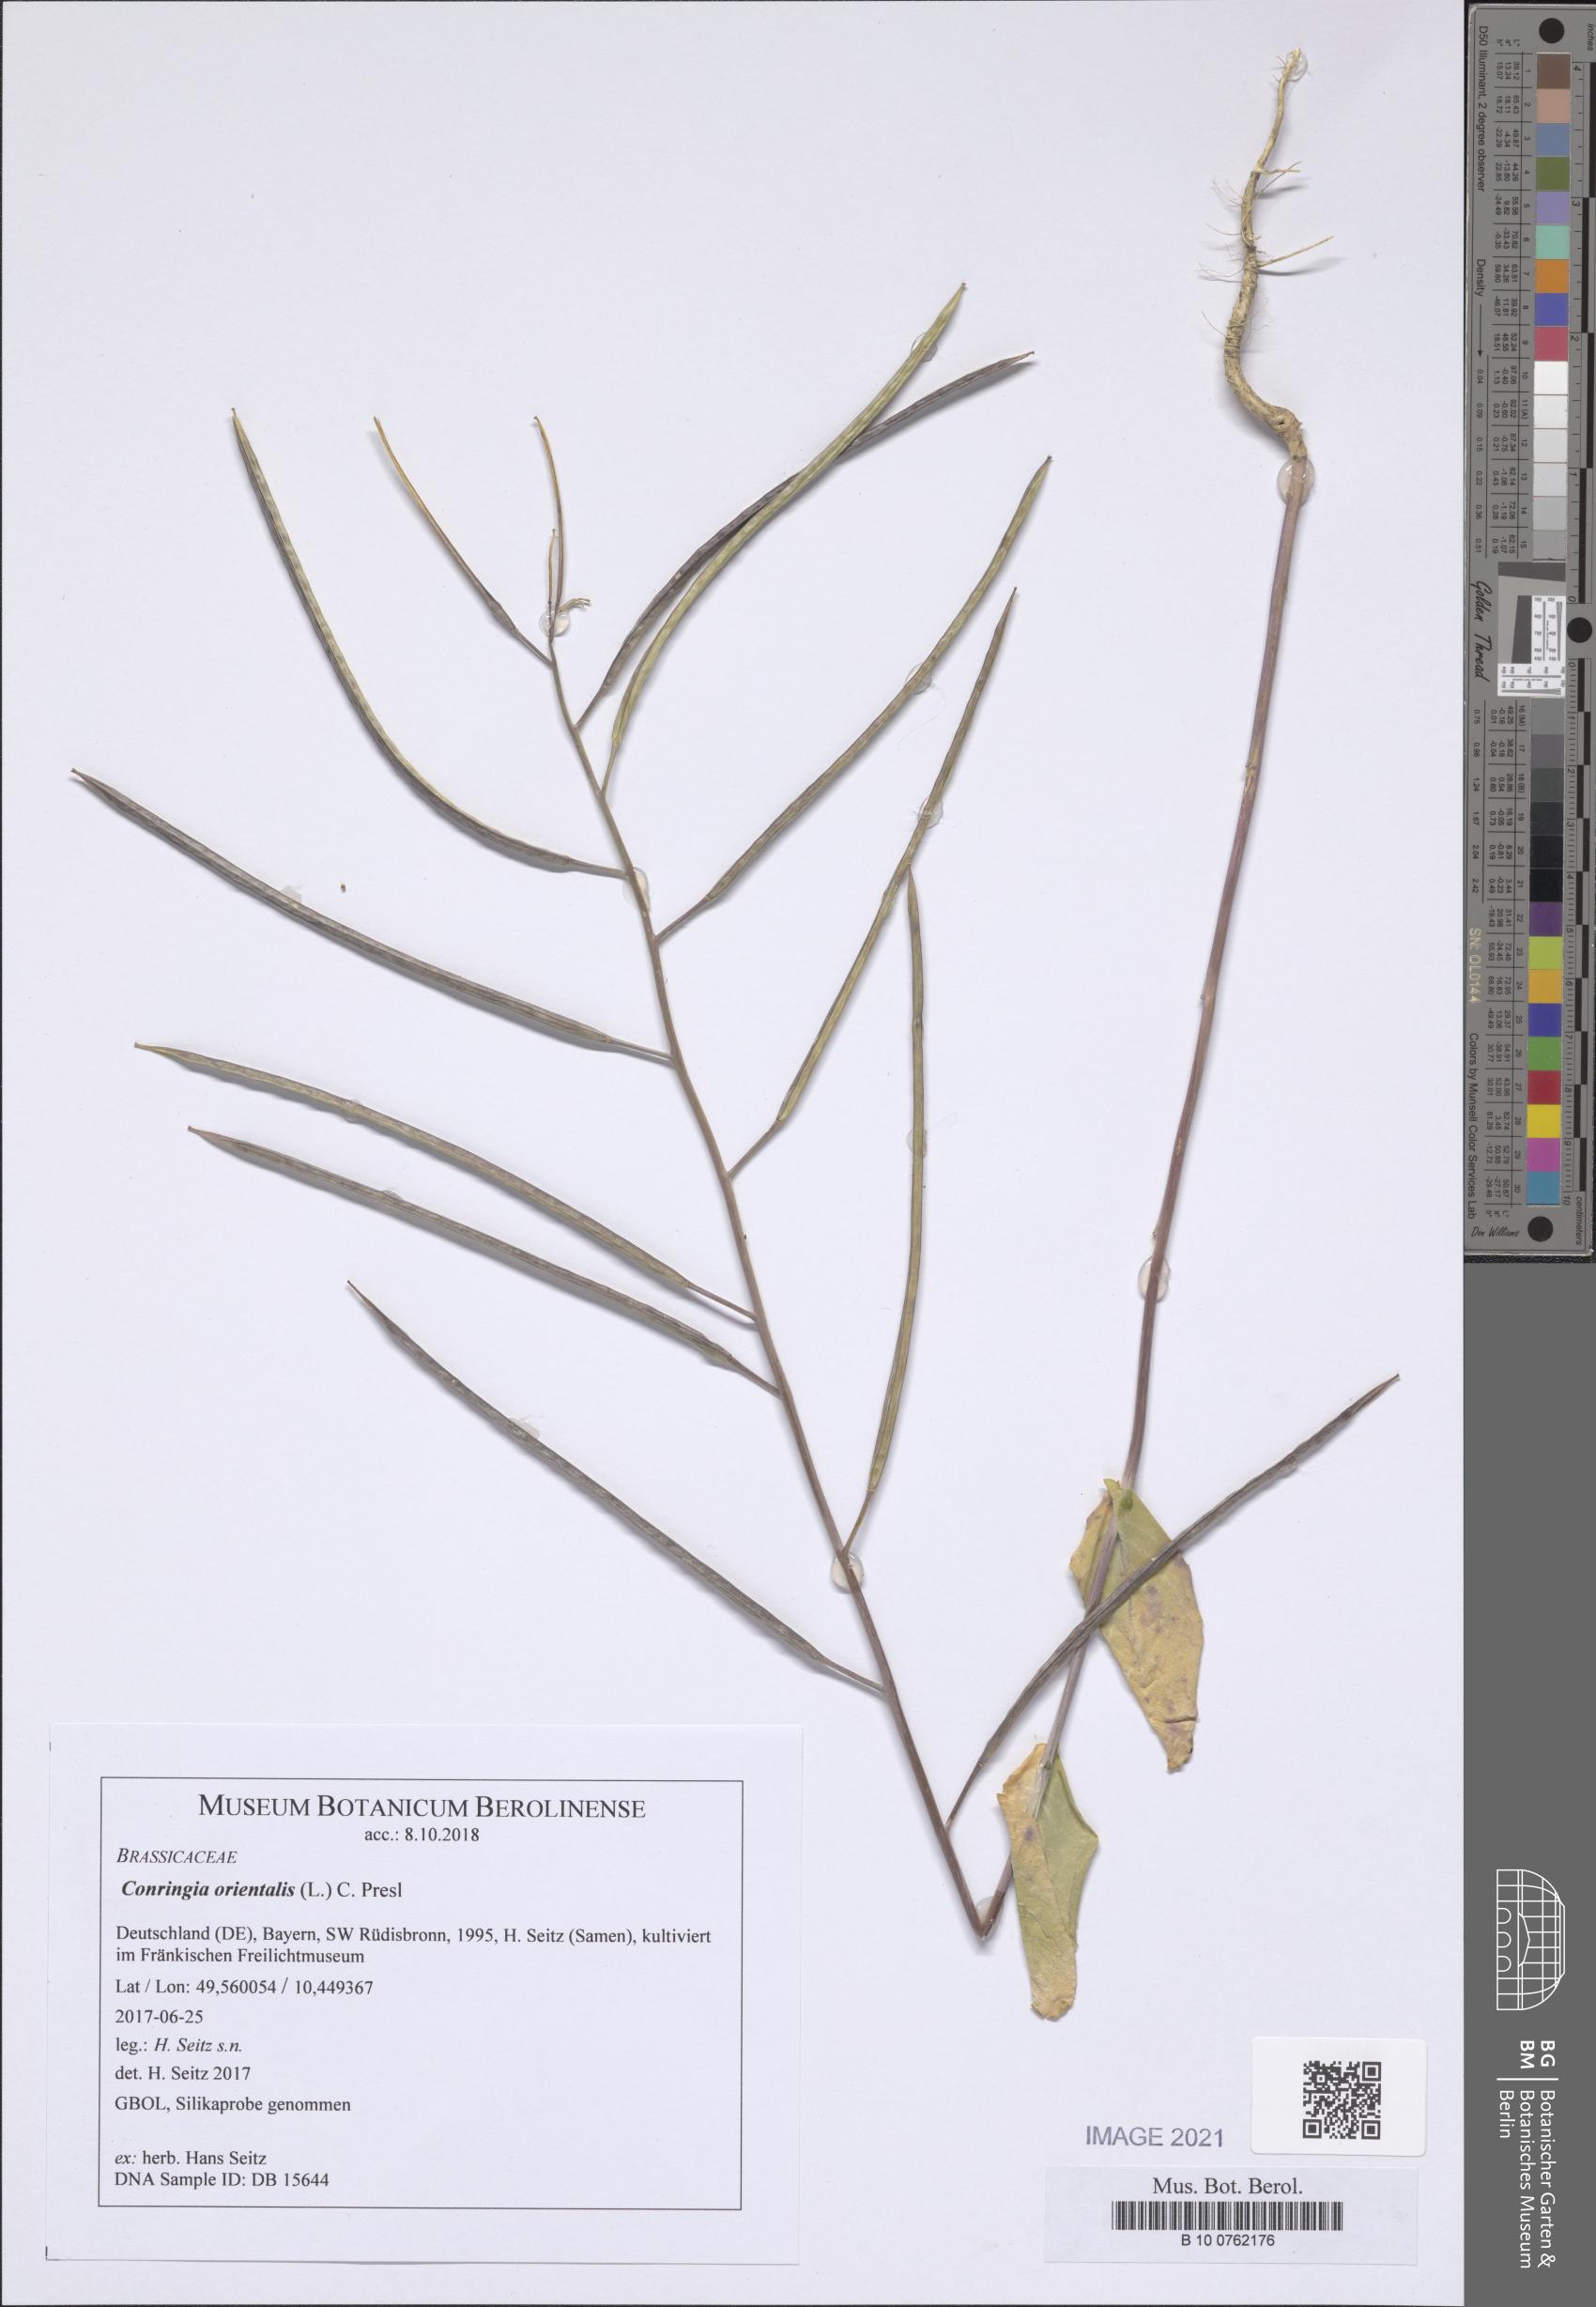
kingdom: Plantae
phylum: Tracheophyta
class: Magnoliopsida
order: Brassicales
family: Brassicaceae
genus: Conringia
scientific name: Conringia orientalis
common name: Hare's ear mustard
